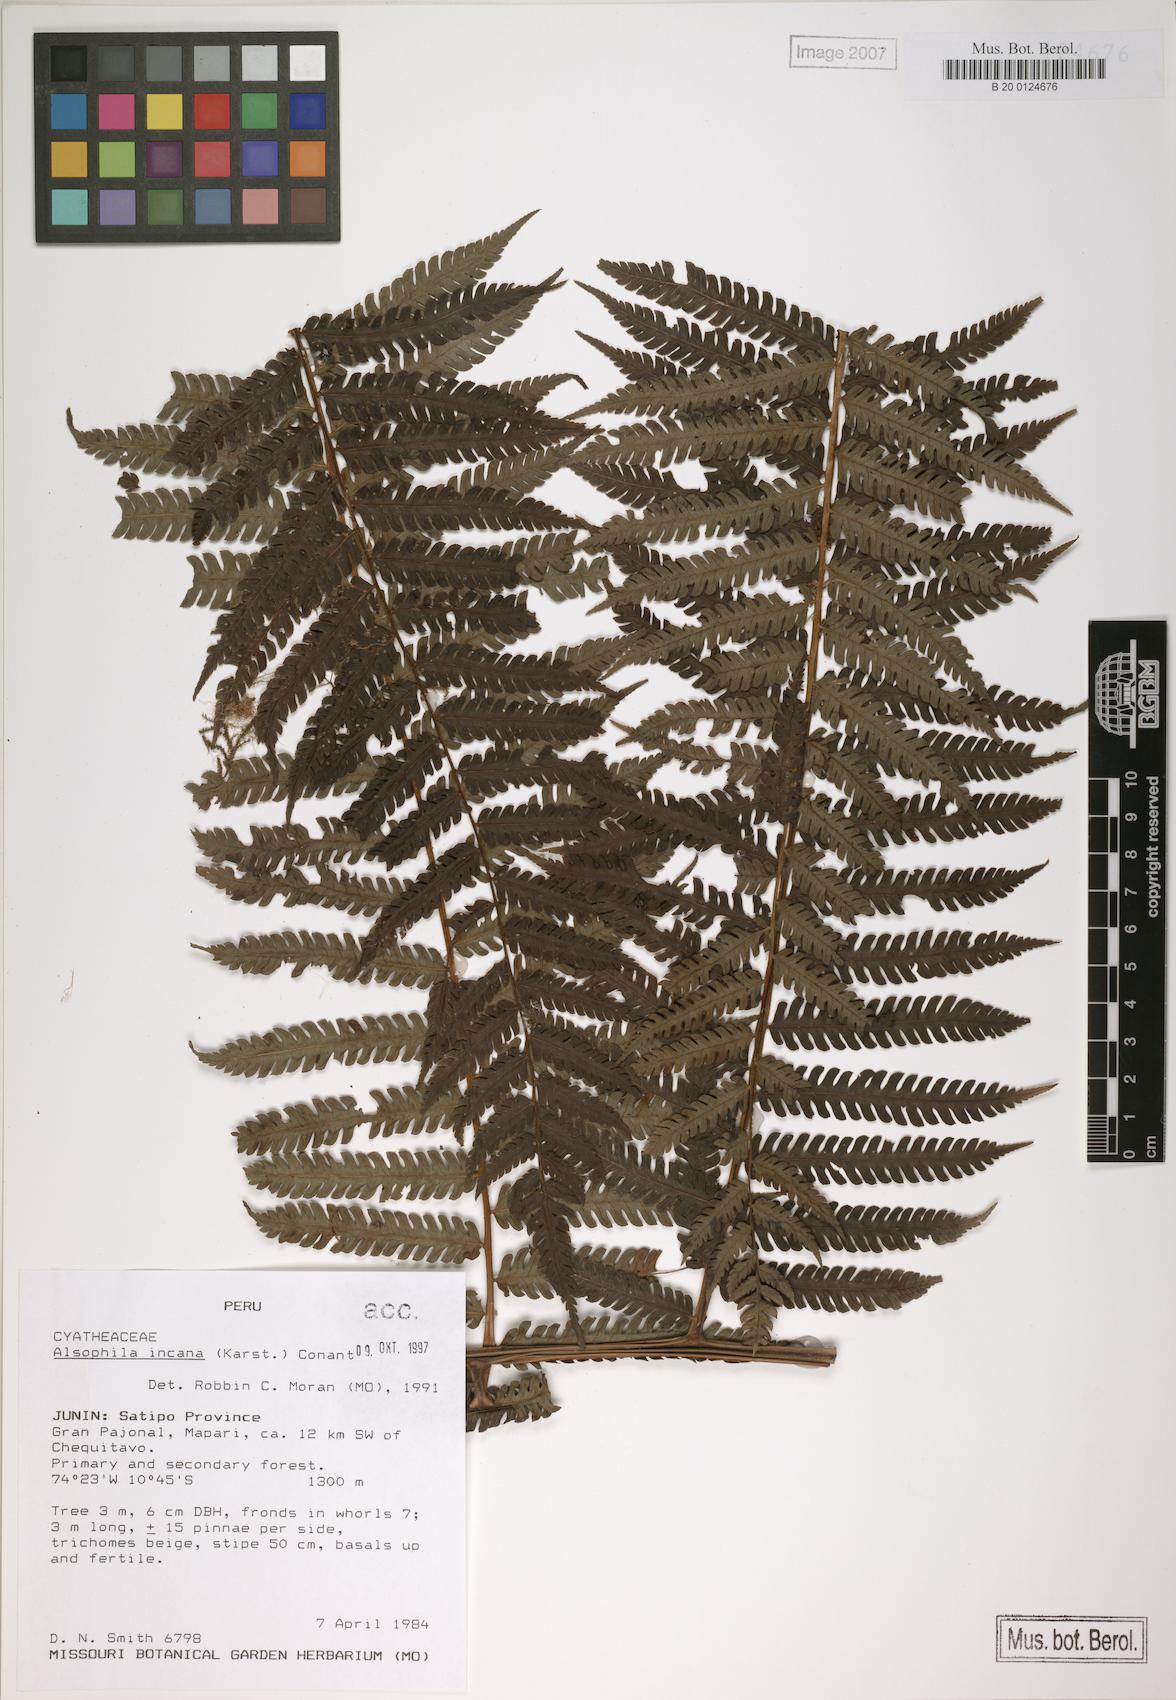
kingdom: Plantae
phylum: Tracheophyta
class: Polypodiopsida
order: Cyatheales
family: Cyatheaceae
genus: Alsophila
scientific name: Alsophila incana
